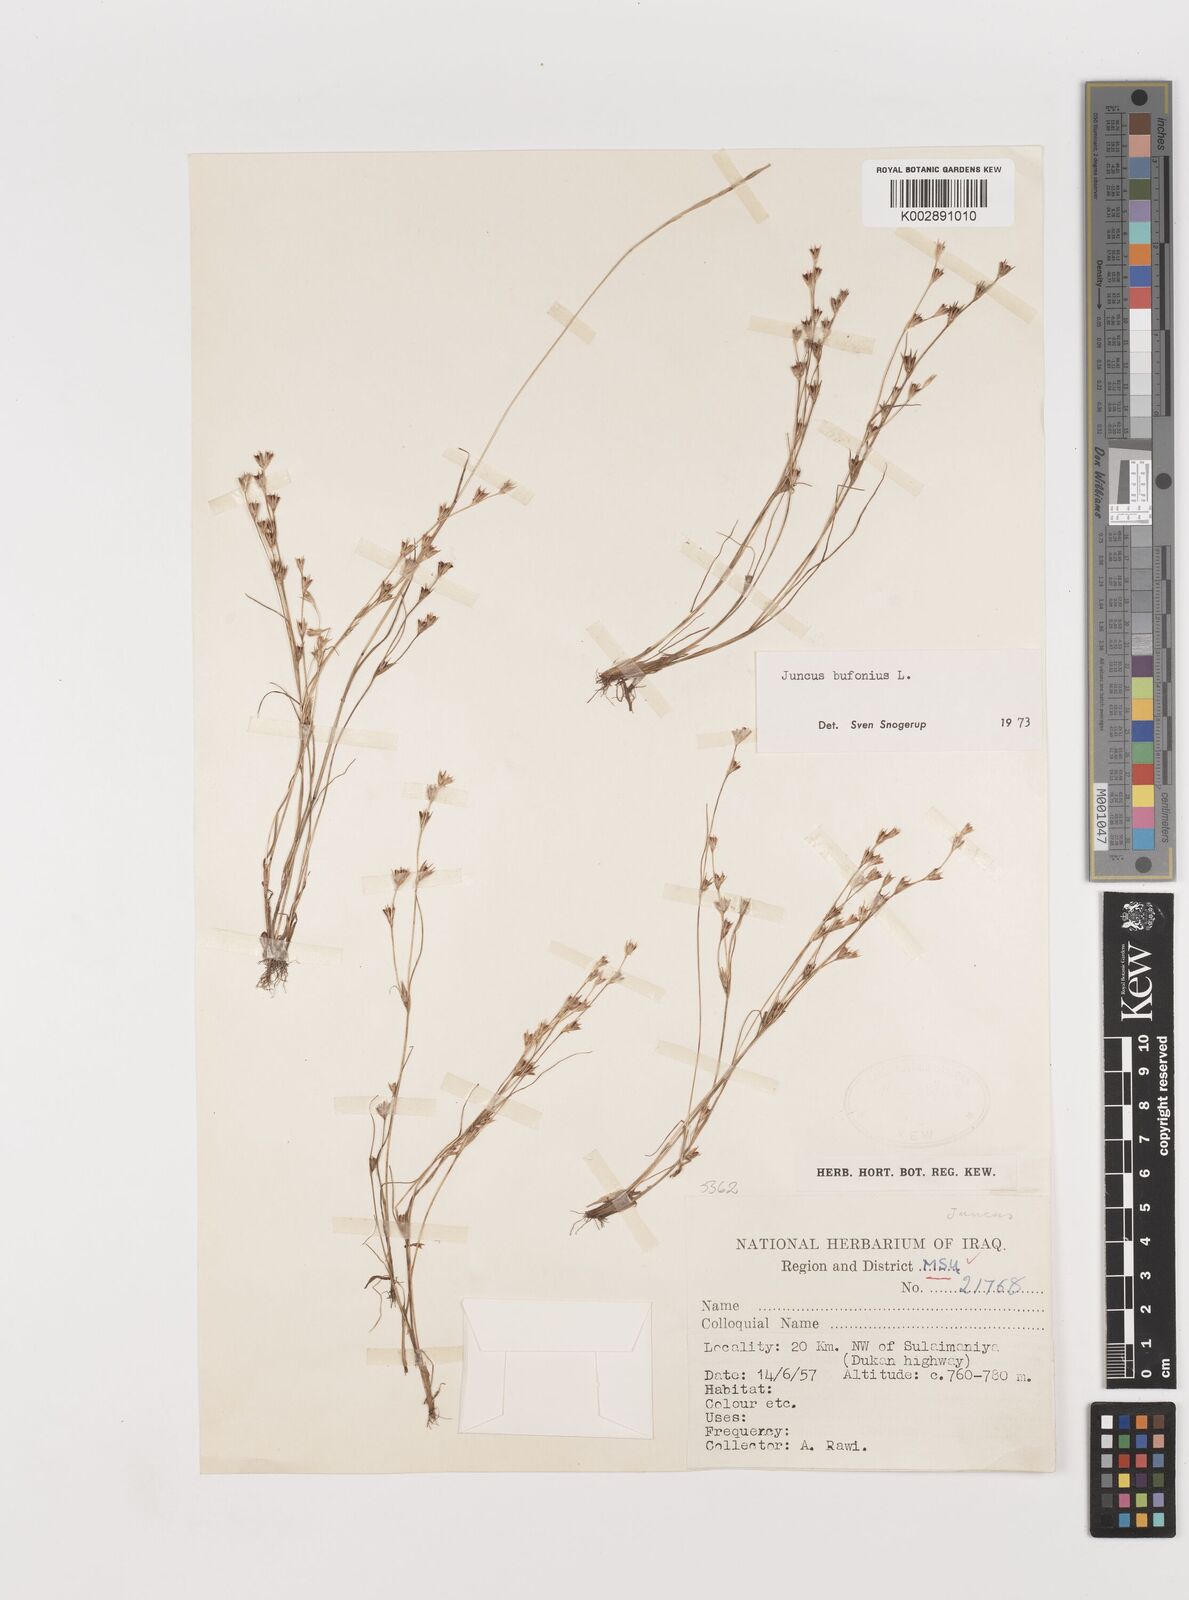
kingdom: Plantae
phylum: Tracheophyta
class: Liliopsida
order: Poales
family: Juncaceae
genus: Juncus
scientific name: Juncus bufonius
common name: Toad rush
